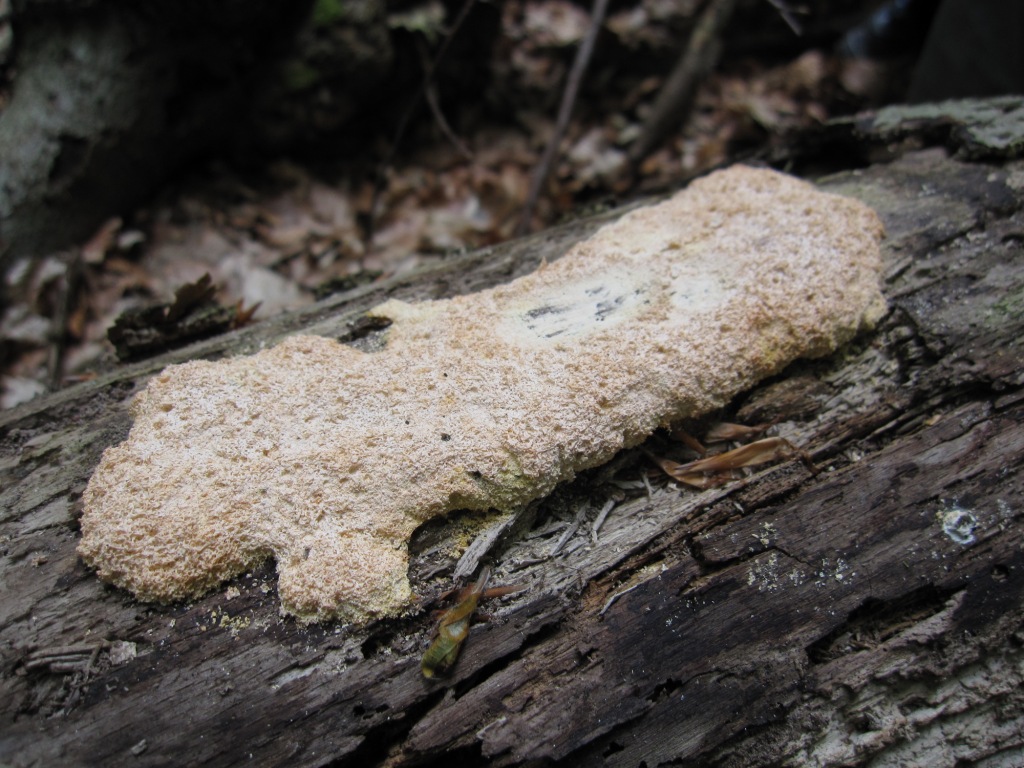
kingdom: Protozoa
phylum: Mycetozoa
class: Myxomycetes
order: Physarales
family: Physaraceae
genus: Fuligo
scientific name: Fuligo septica
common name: Dog vomit slime mold
